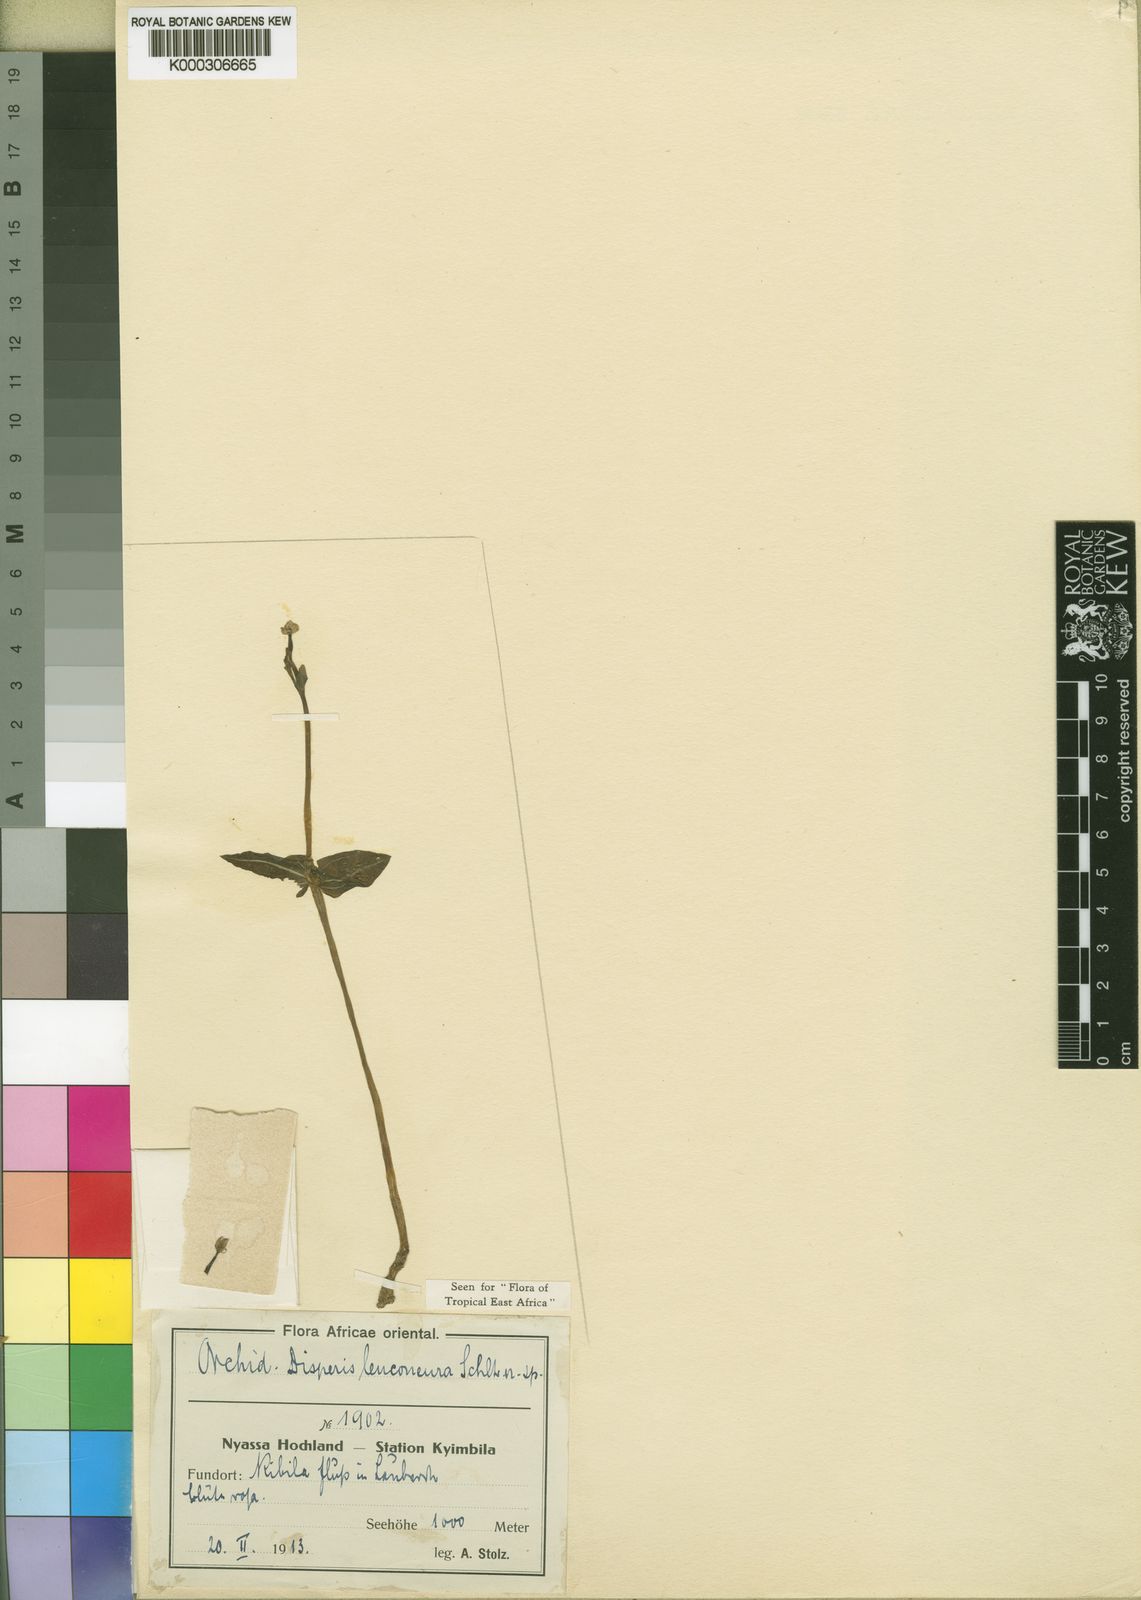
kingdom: Plantae
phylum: Tracheophyta
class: Liliopsida
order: Asparagales
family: Orchidaceae
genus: Disperis
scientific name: Disperis nitida
